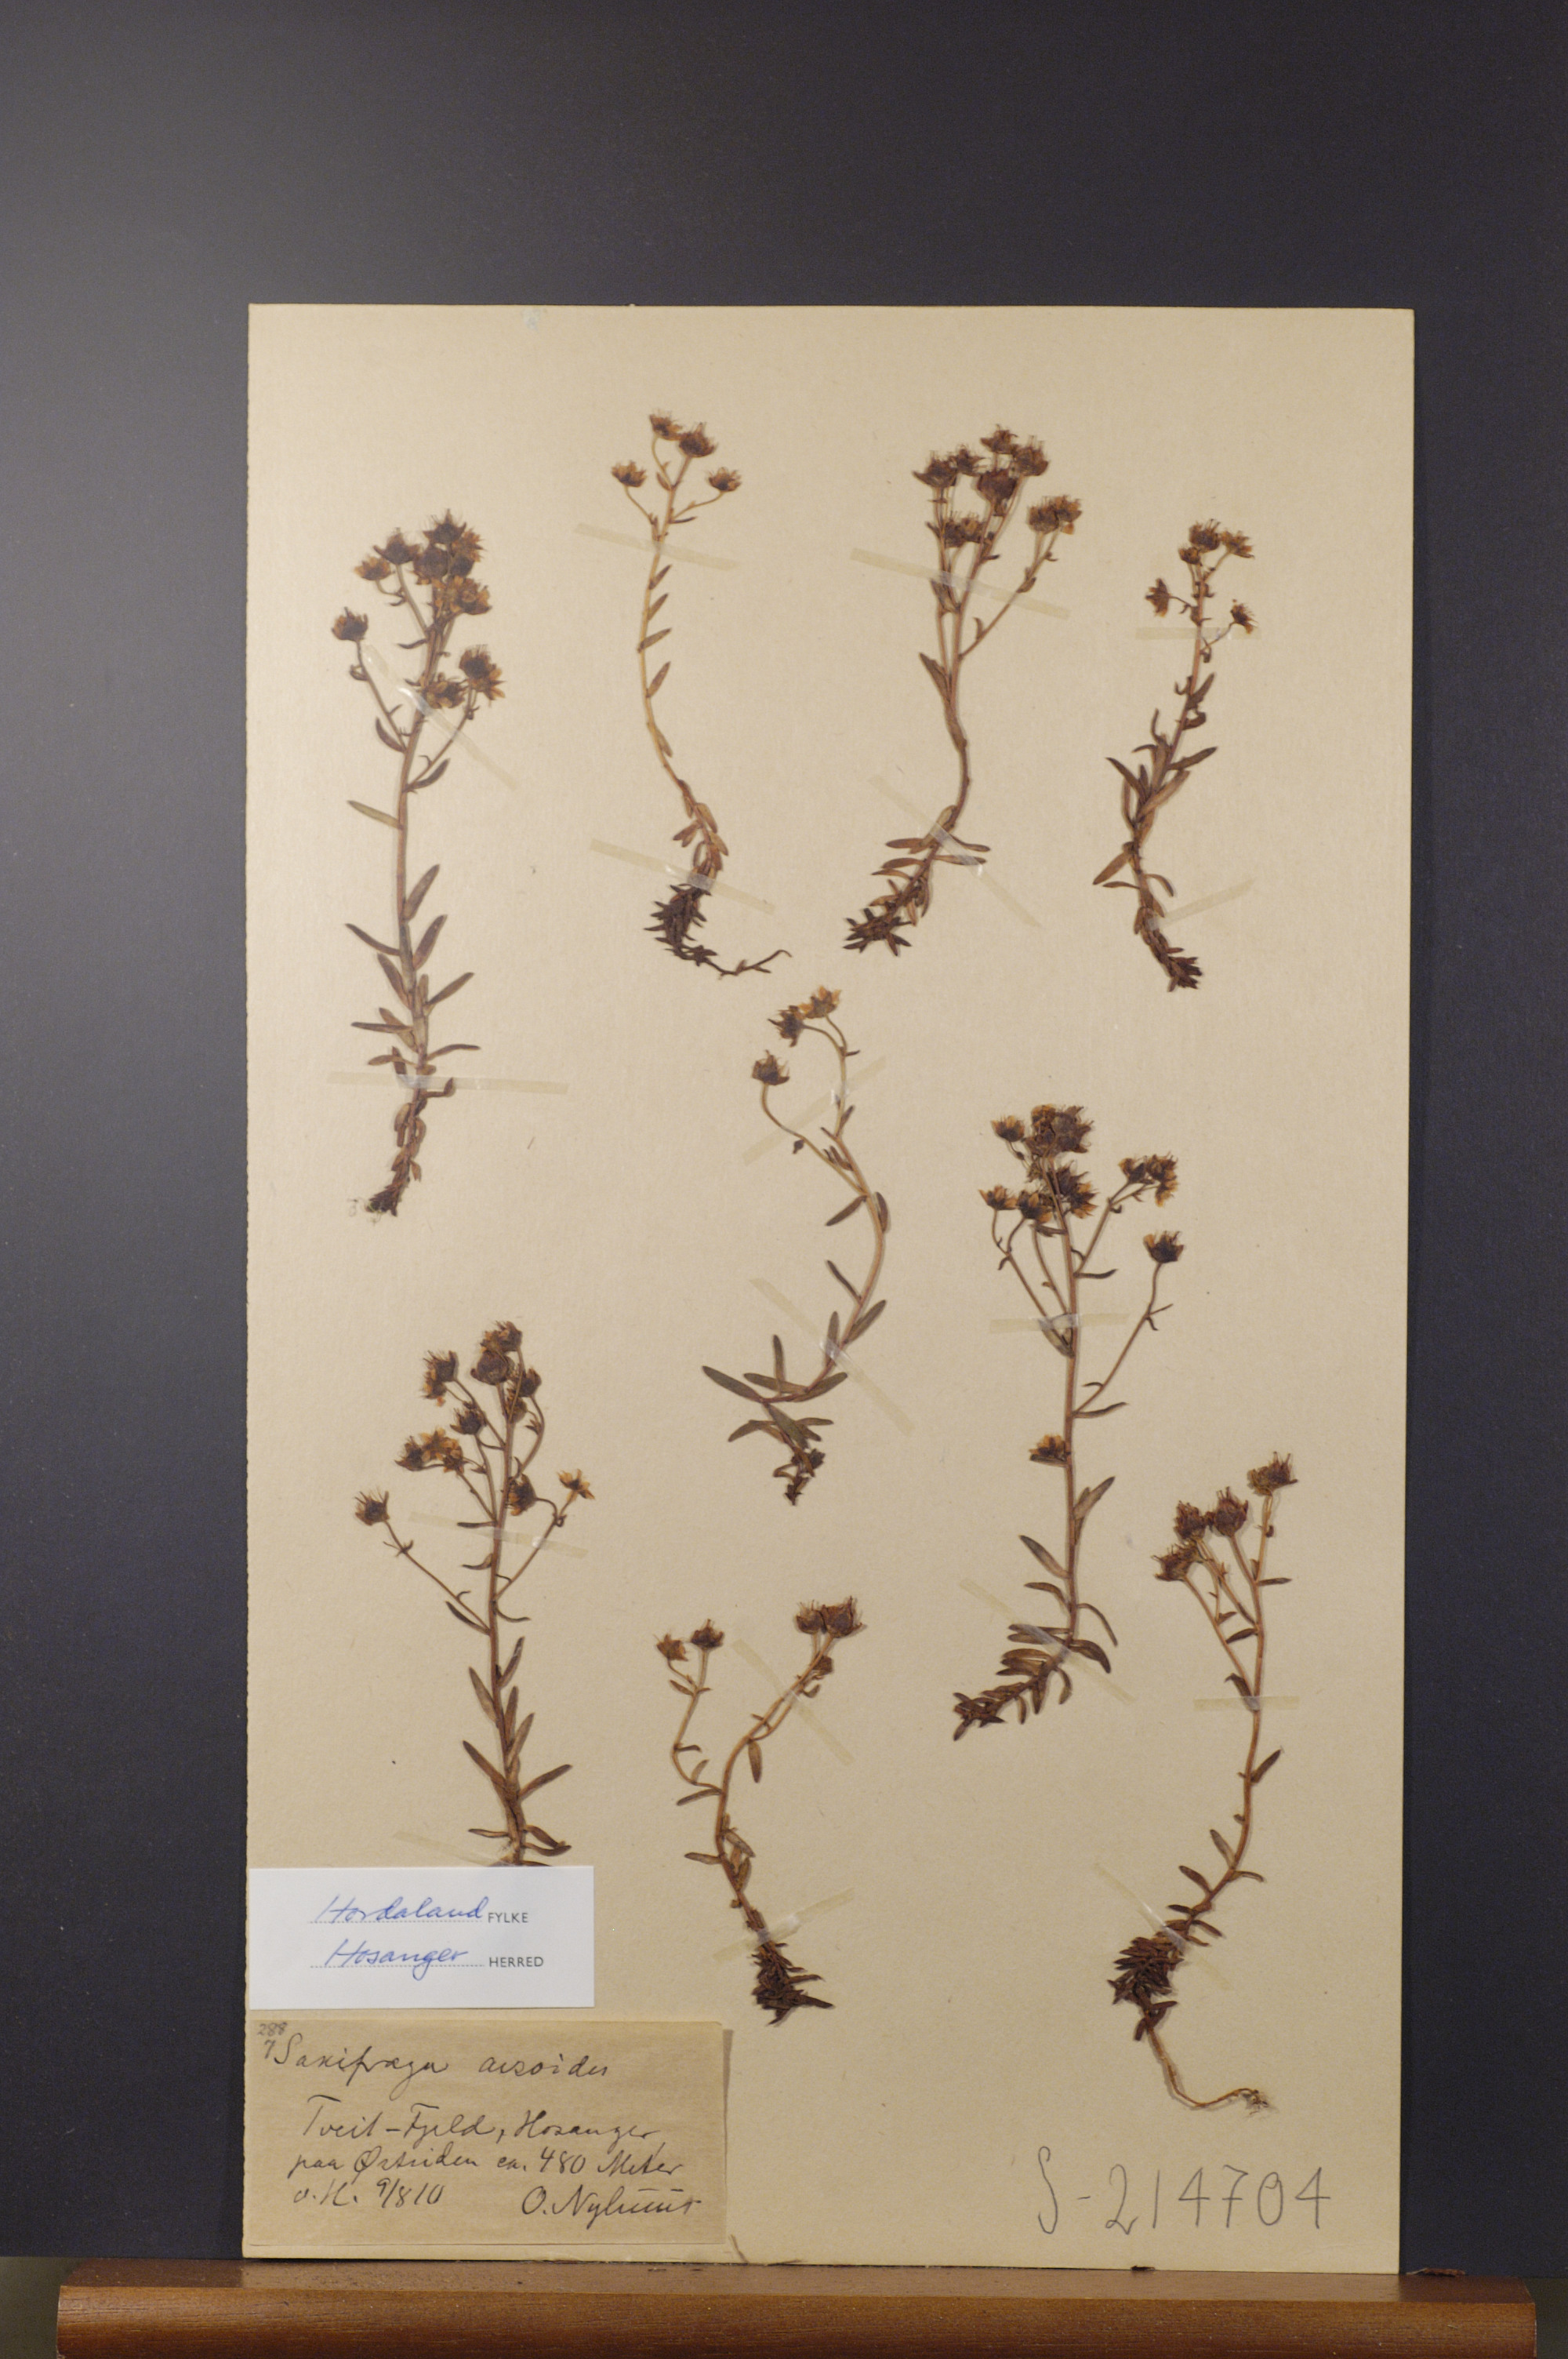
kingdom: Plantae
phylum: Tracheophyta
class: Magnoliopsida
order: Saxifragales
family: Saxifragaceae
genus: Saxifraga
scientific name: Saxifraga aizoides
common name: Yellow mountain saxifrage
